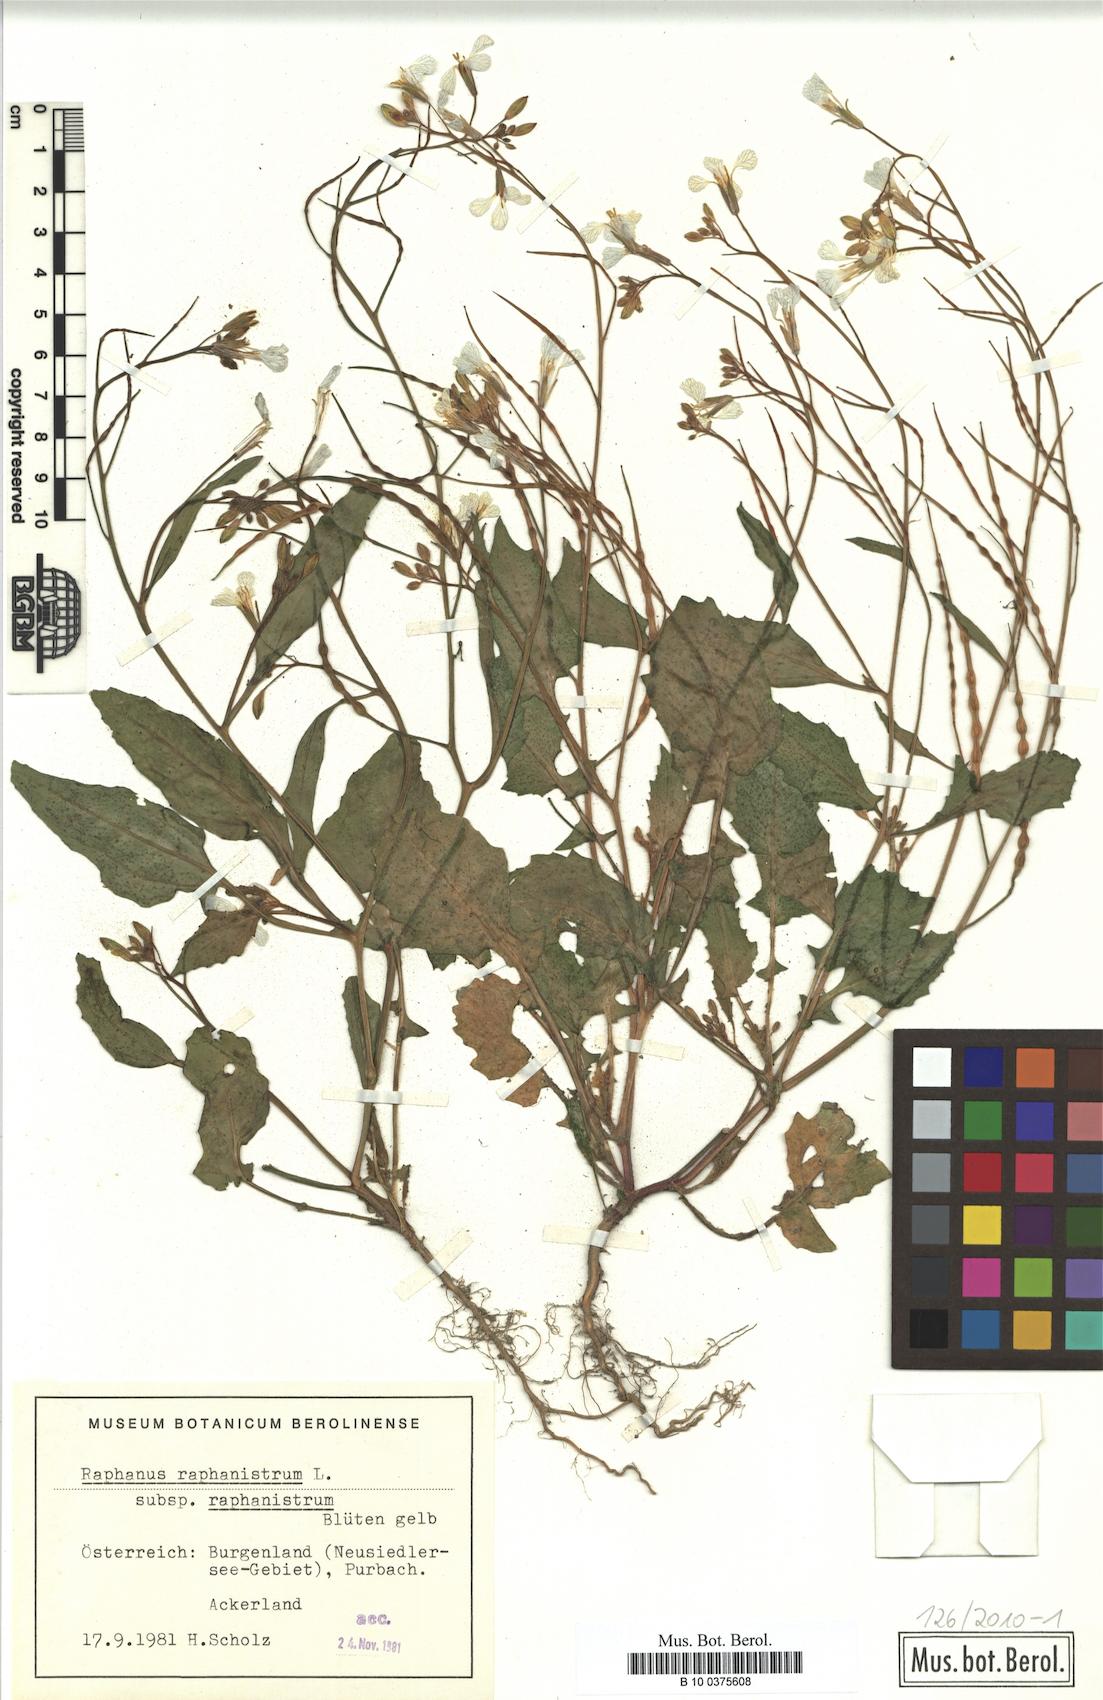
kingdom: Plantae
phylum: Tracheophyta
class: Magnoliopsida
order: Brassicales
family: Brassicaceae
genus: Raphanus
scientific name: Raphanus raphanistrum
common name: Wild radish
